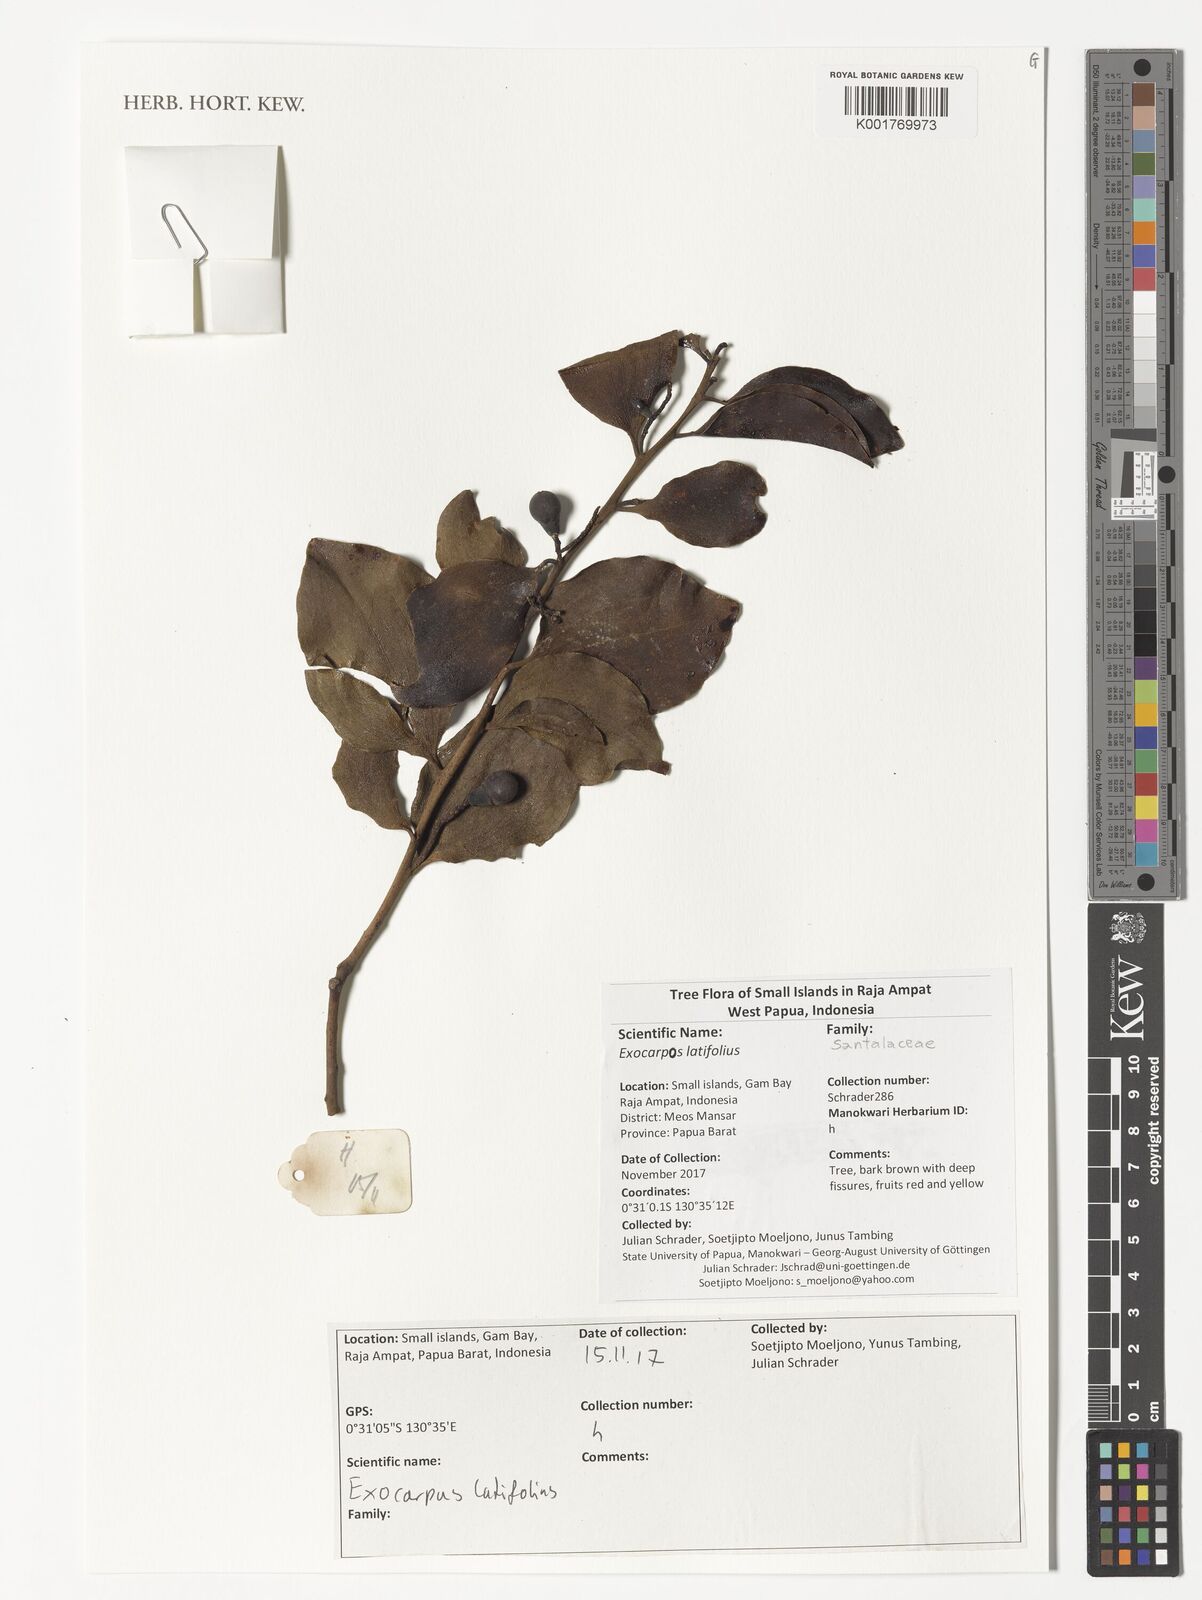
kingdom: Plantae
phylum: Tracheophyta
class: Magnoliopsida
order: Santalales
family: Santalaceae
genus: Exocarpos
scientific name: Exocarpos latifolius
